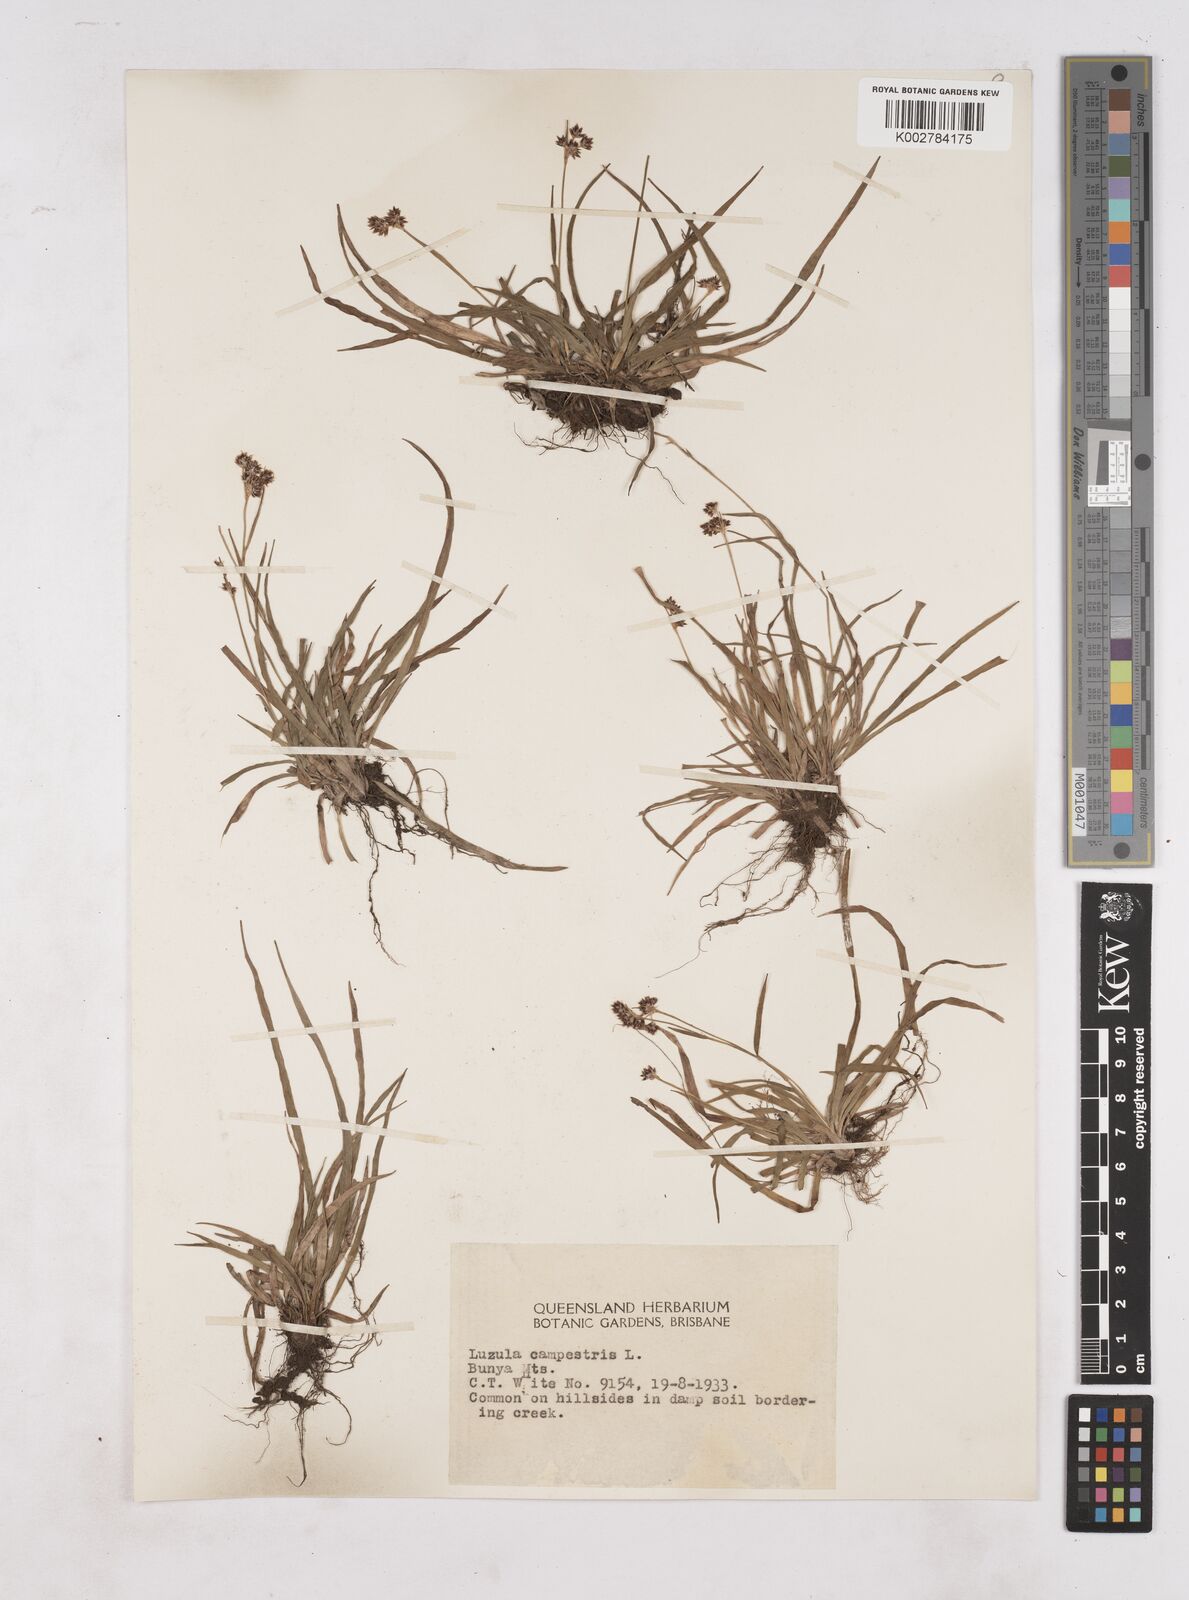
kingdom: Plantae
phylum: Tracheophyta
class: Liliopsida
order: Poales
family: Juncaceae
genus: Luzula
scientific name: Luzula campestris
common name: Field wood-rush
